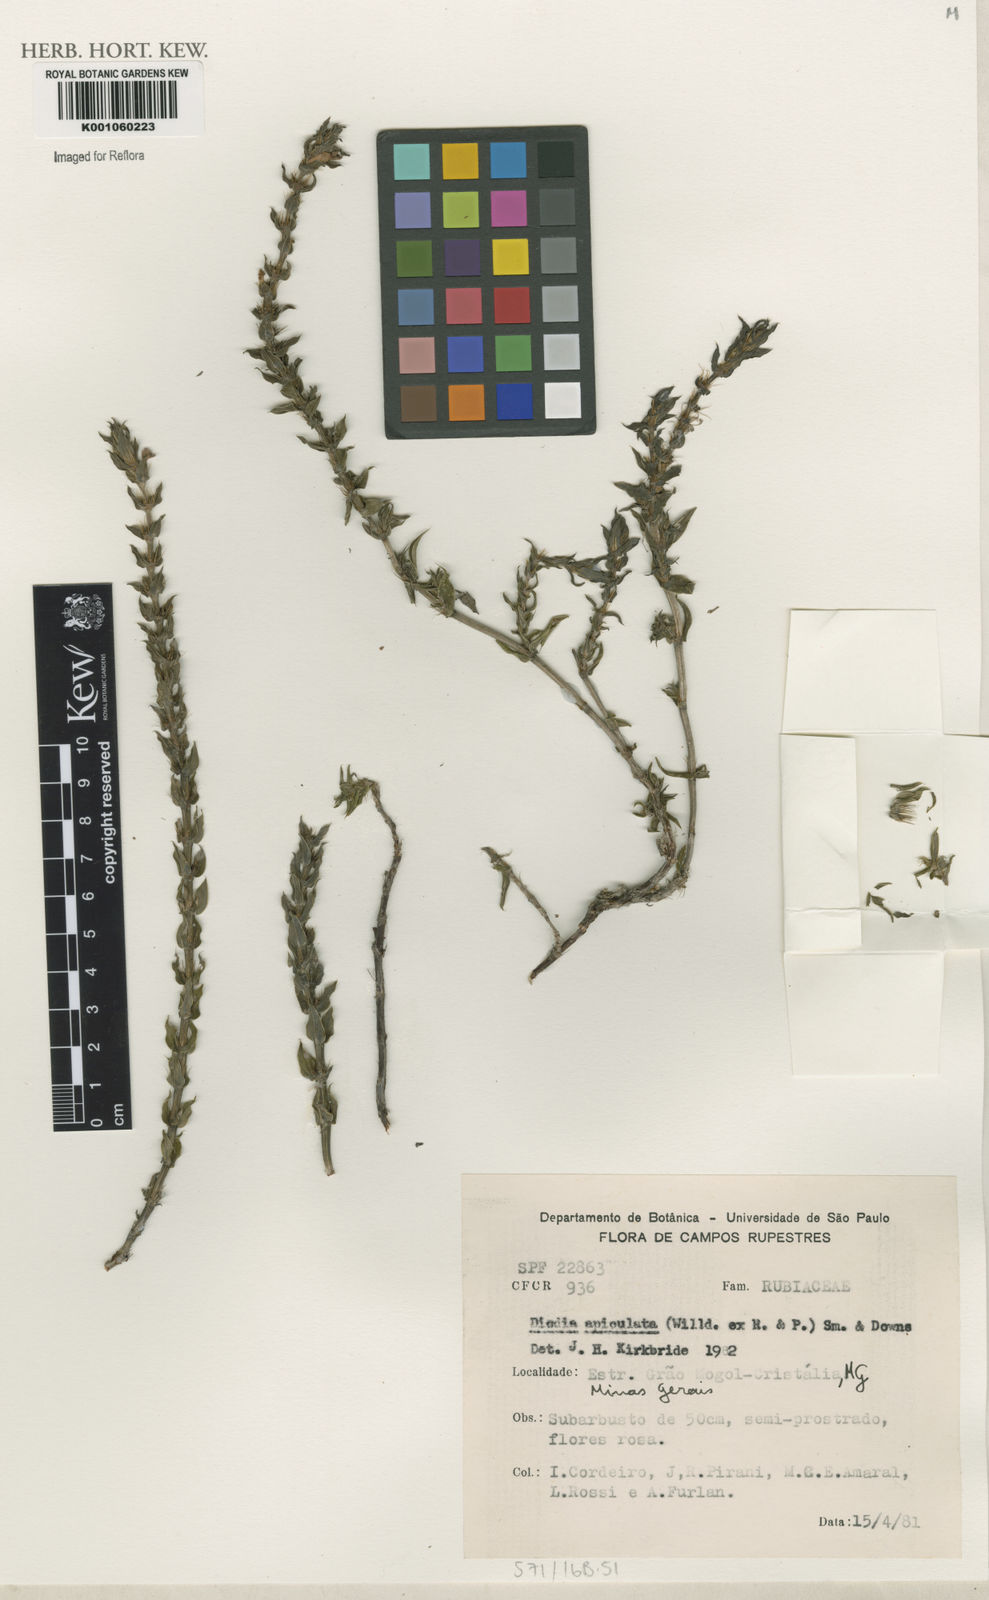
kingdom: Plantae
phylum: Tracheophyta
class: Magnoliopsida
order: Gentianales
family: Rubiaceae
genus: Hexasepalum
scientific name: Hexasepalum apiculatum
